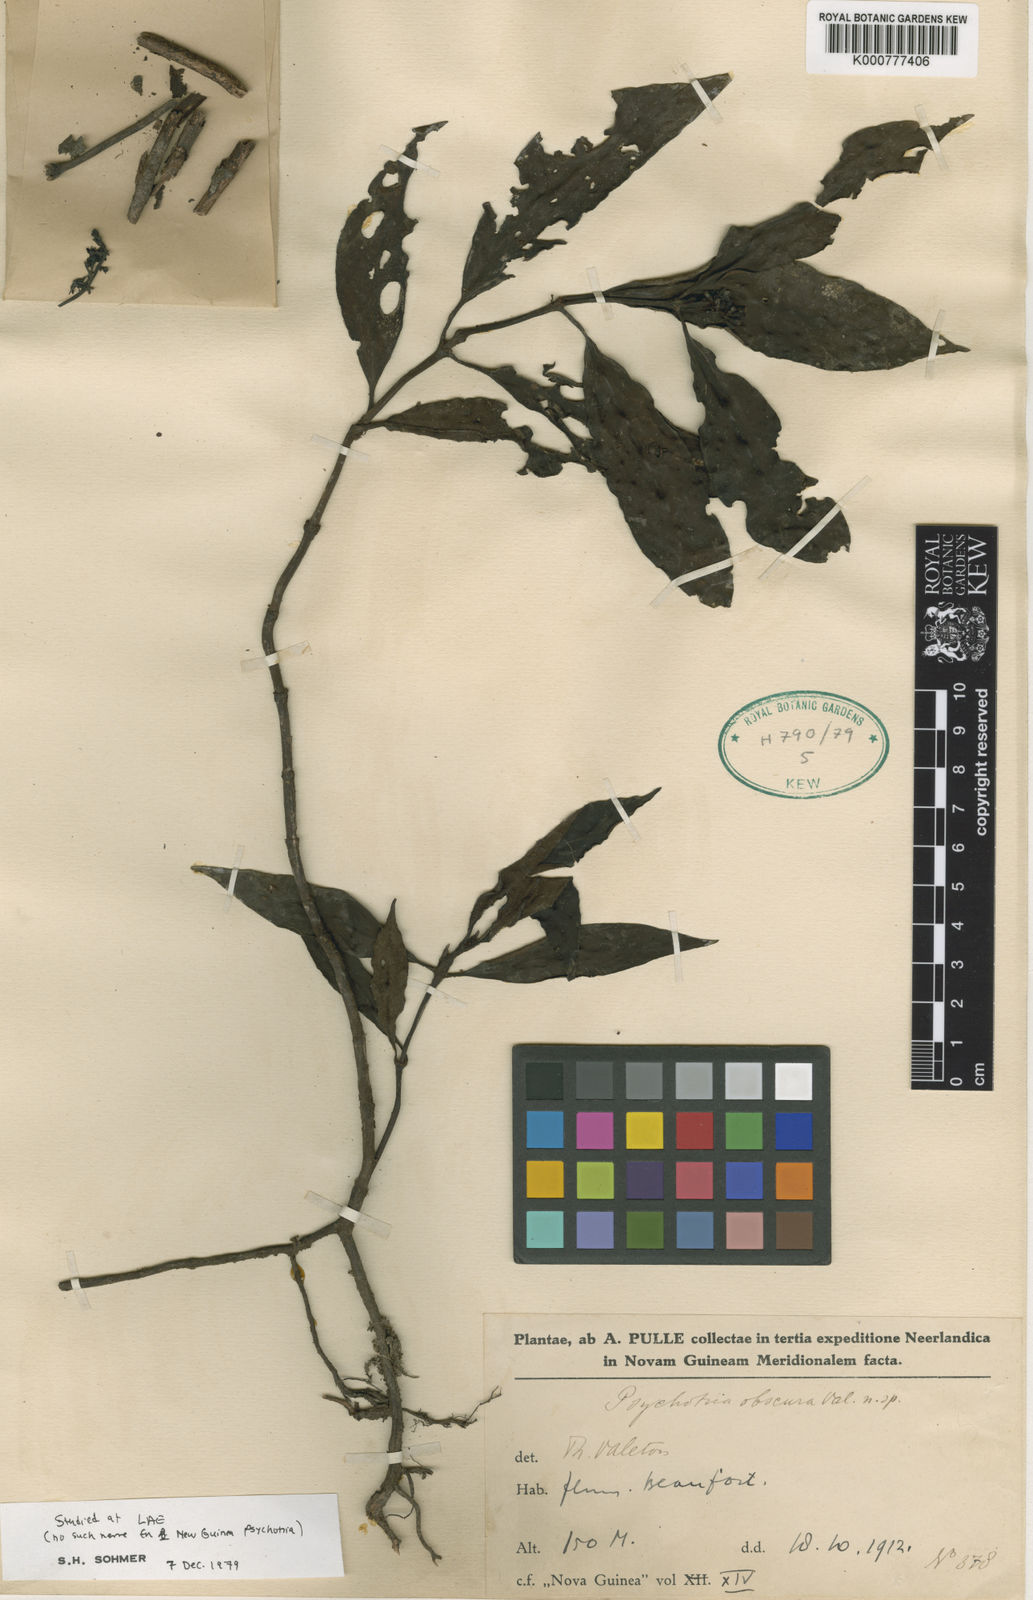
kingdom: Plantae
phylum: Tracheophyta
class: Magnoliopsida
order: Gentianales
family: Rubiaceae
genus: Psychotria
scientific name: Psychotria beaufortiensis
